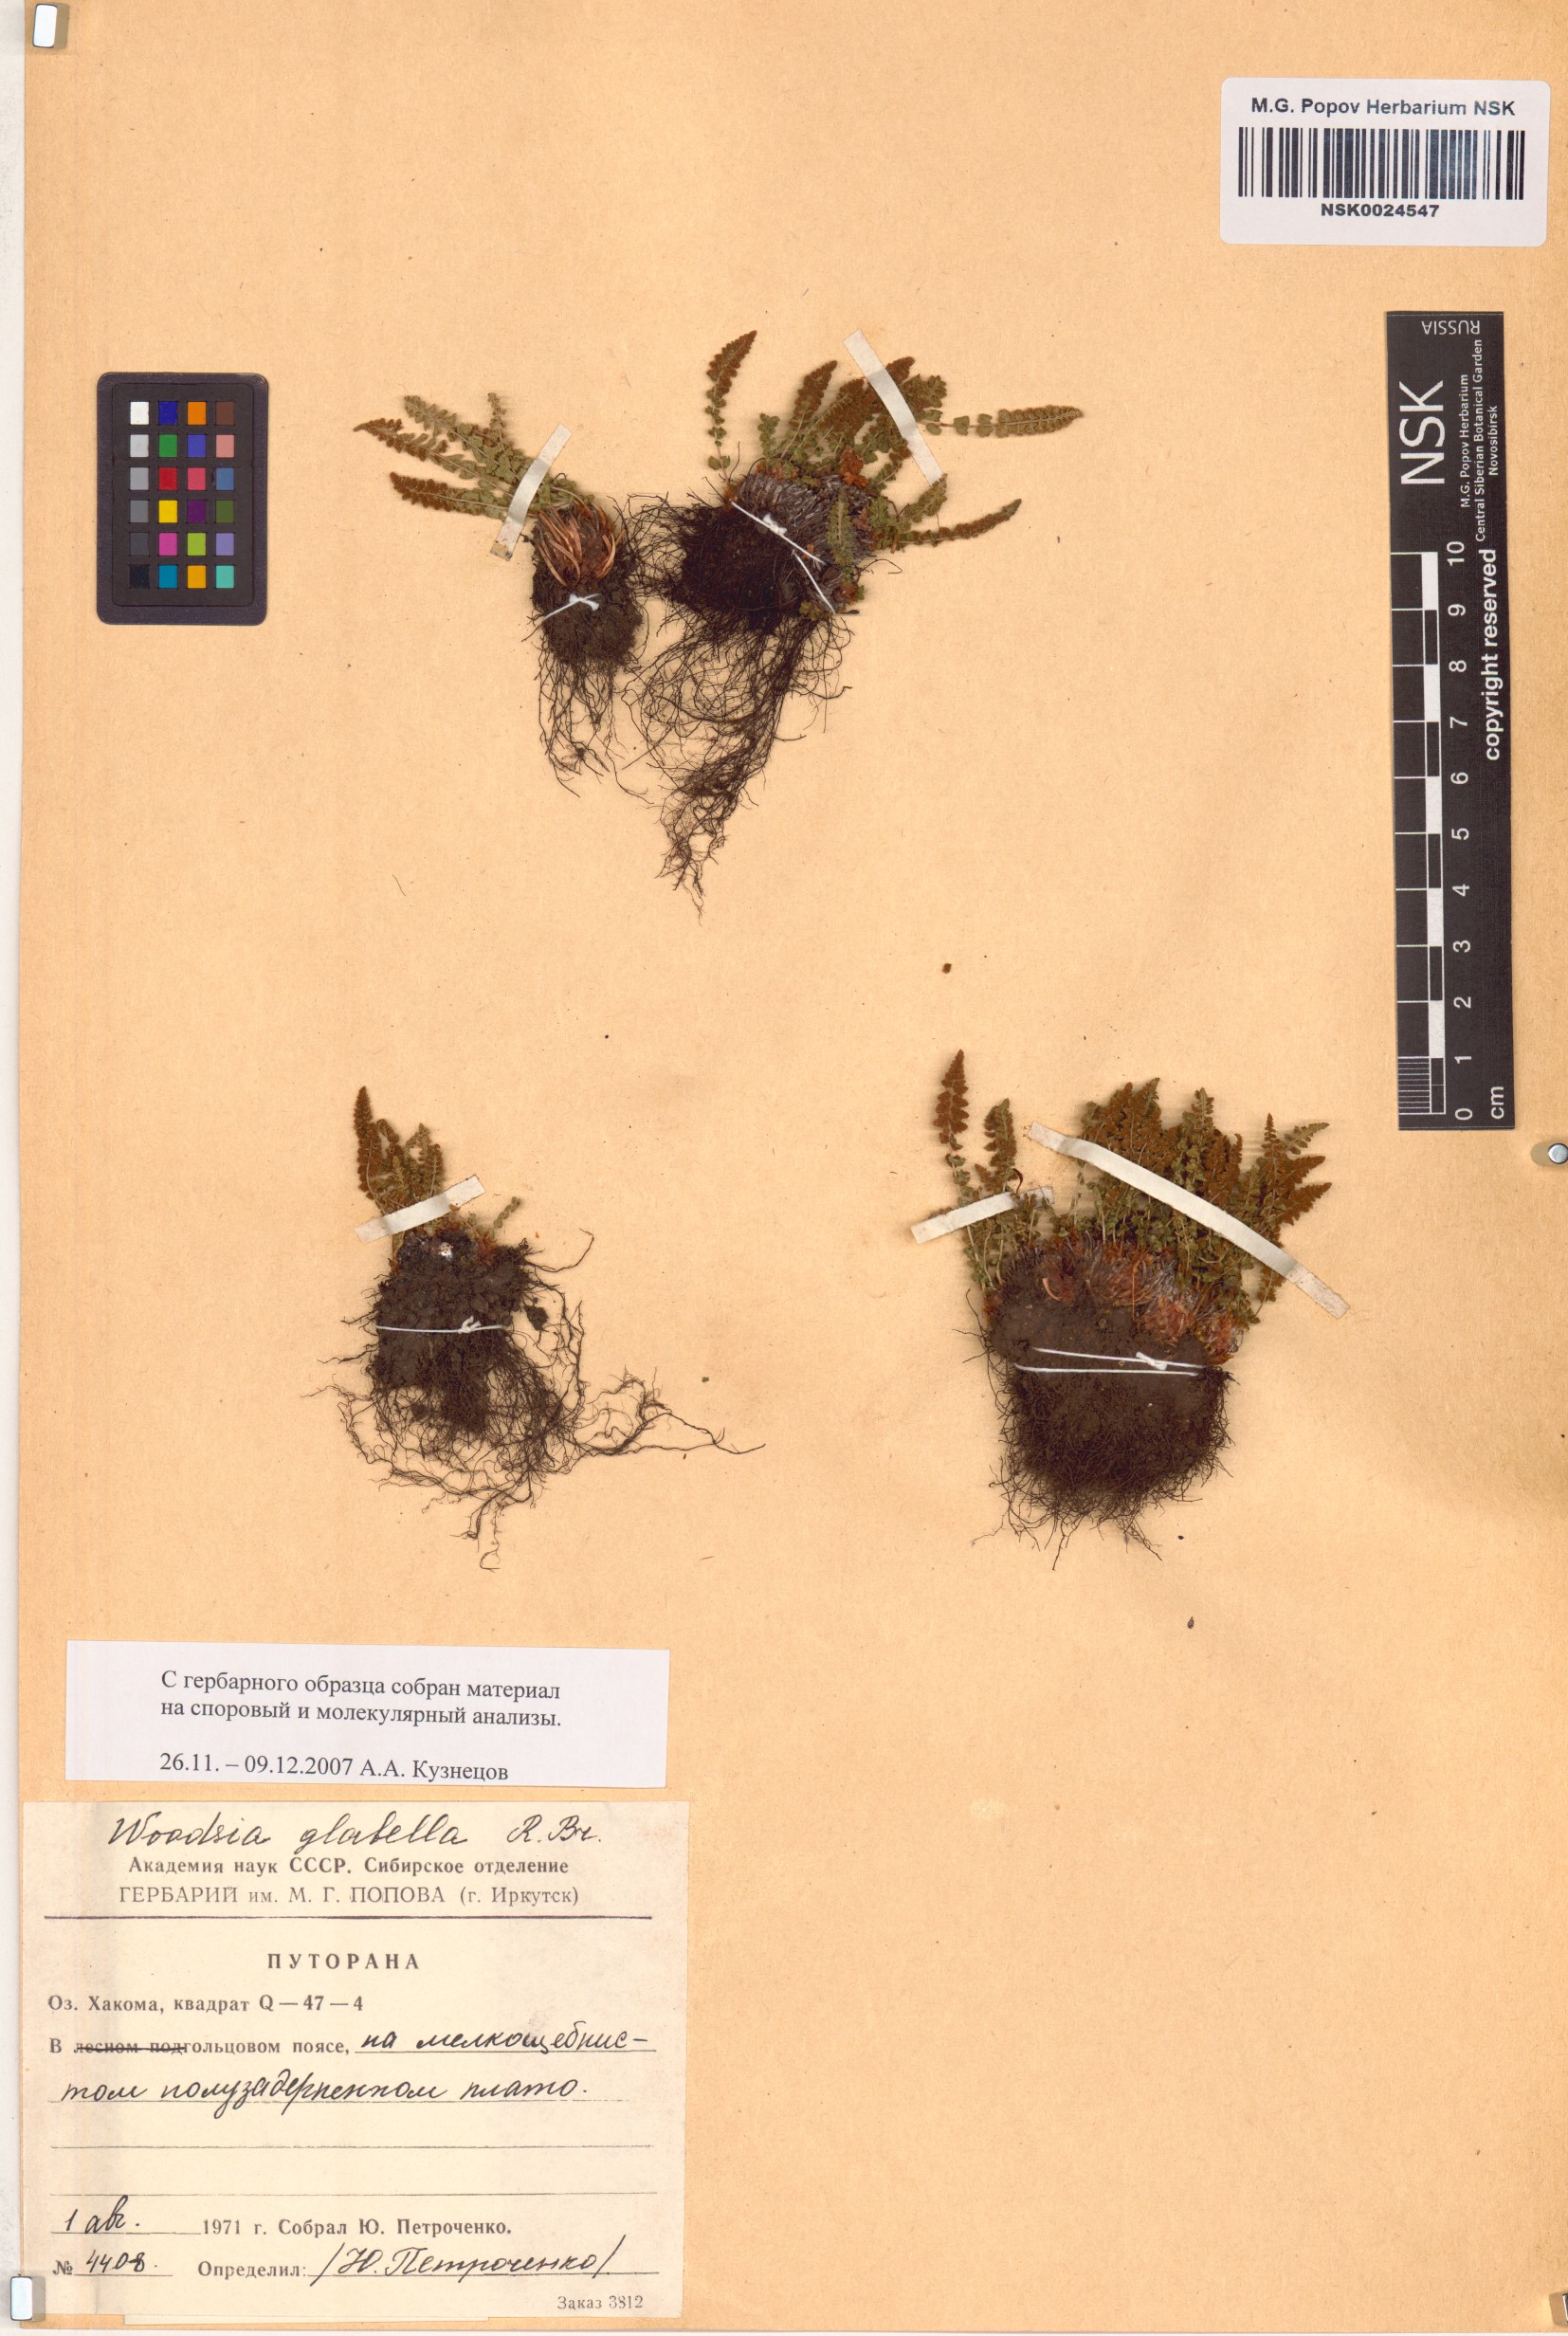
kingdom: Plantae
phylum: Tracheophyta
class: Polypodiopsida
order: Polypodiales
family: Woodsiaceae
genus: Woodsia
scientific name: Woodsia glabella
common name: Smooth woodsia
